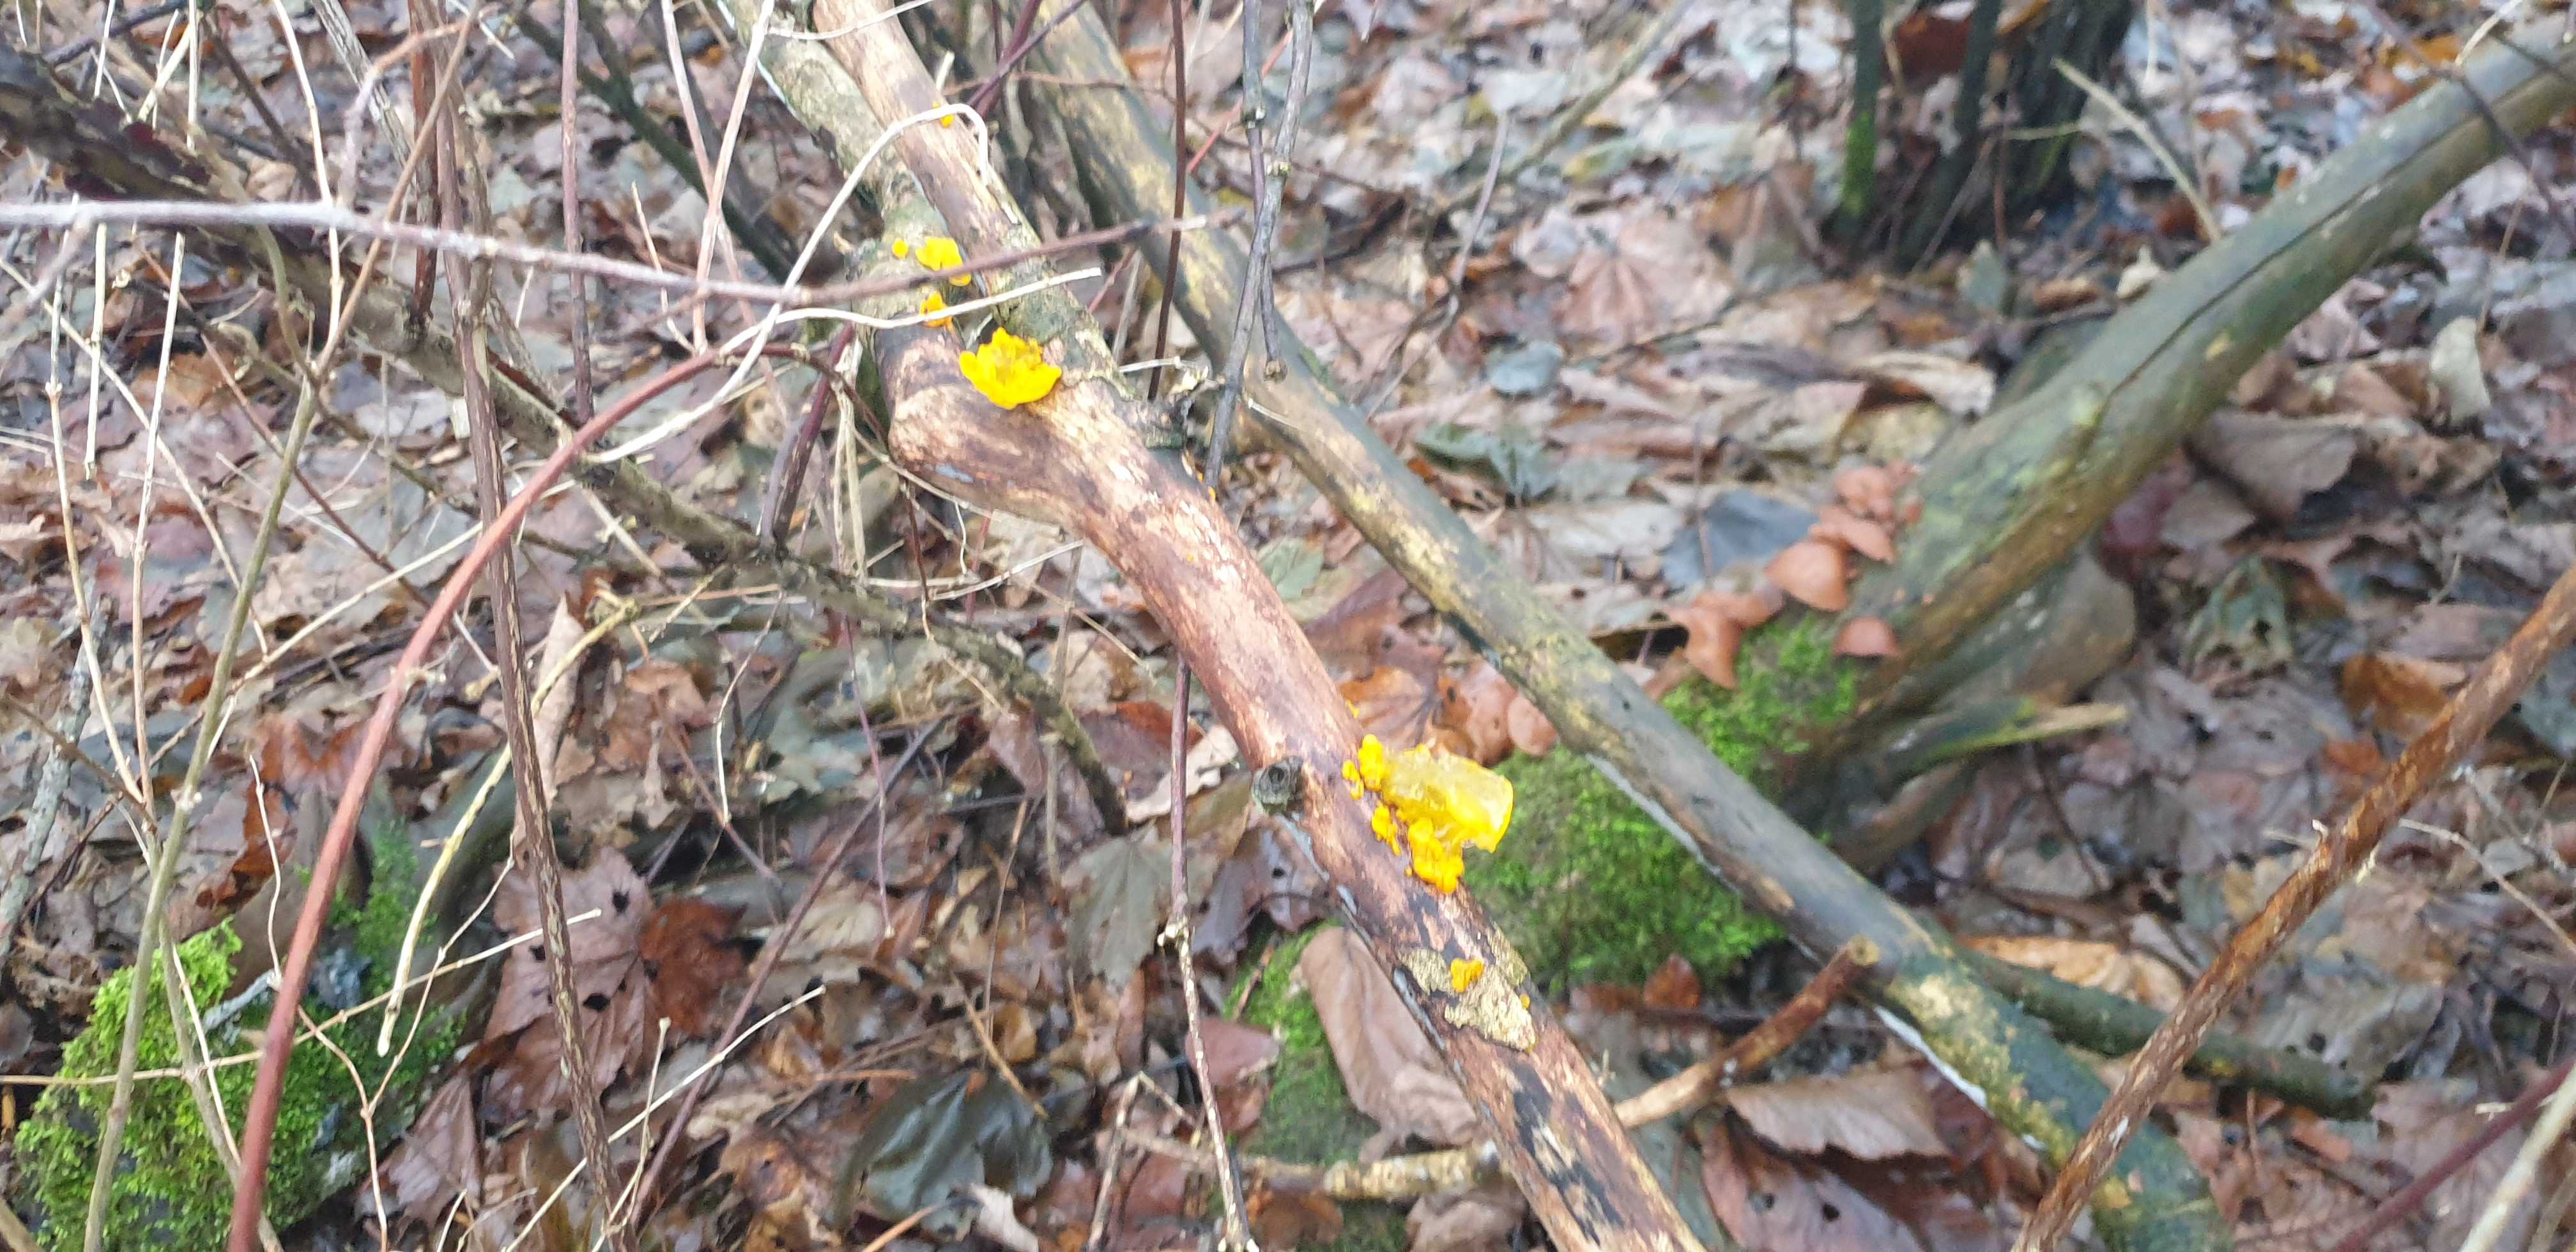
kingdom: Fungi
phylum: Basidiomycota
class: Tremellomycetes
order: Tremellales
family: Tremellaceae
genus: Tremella
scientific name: Tremella mesenterica
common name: gul bævresvamp
